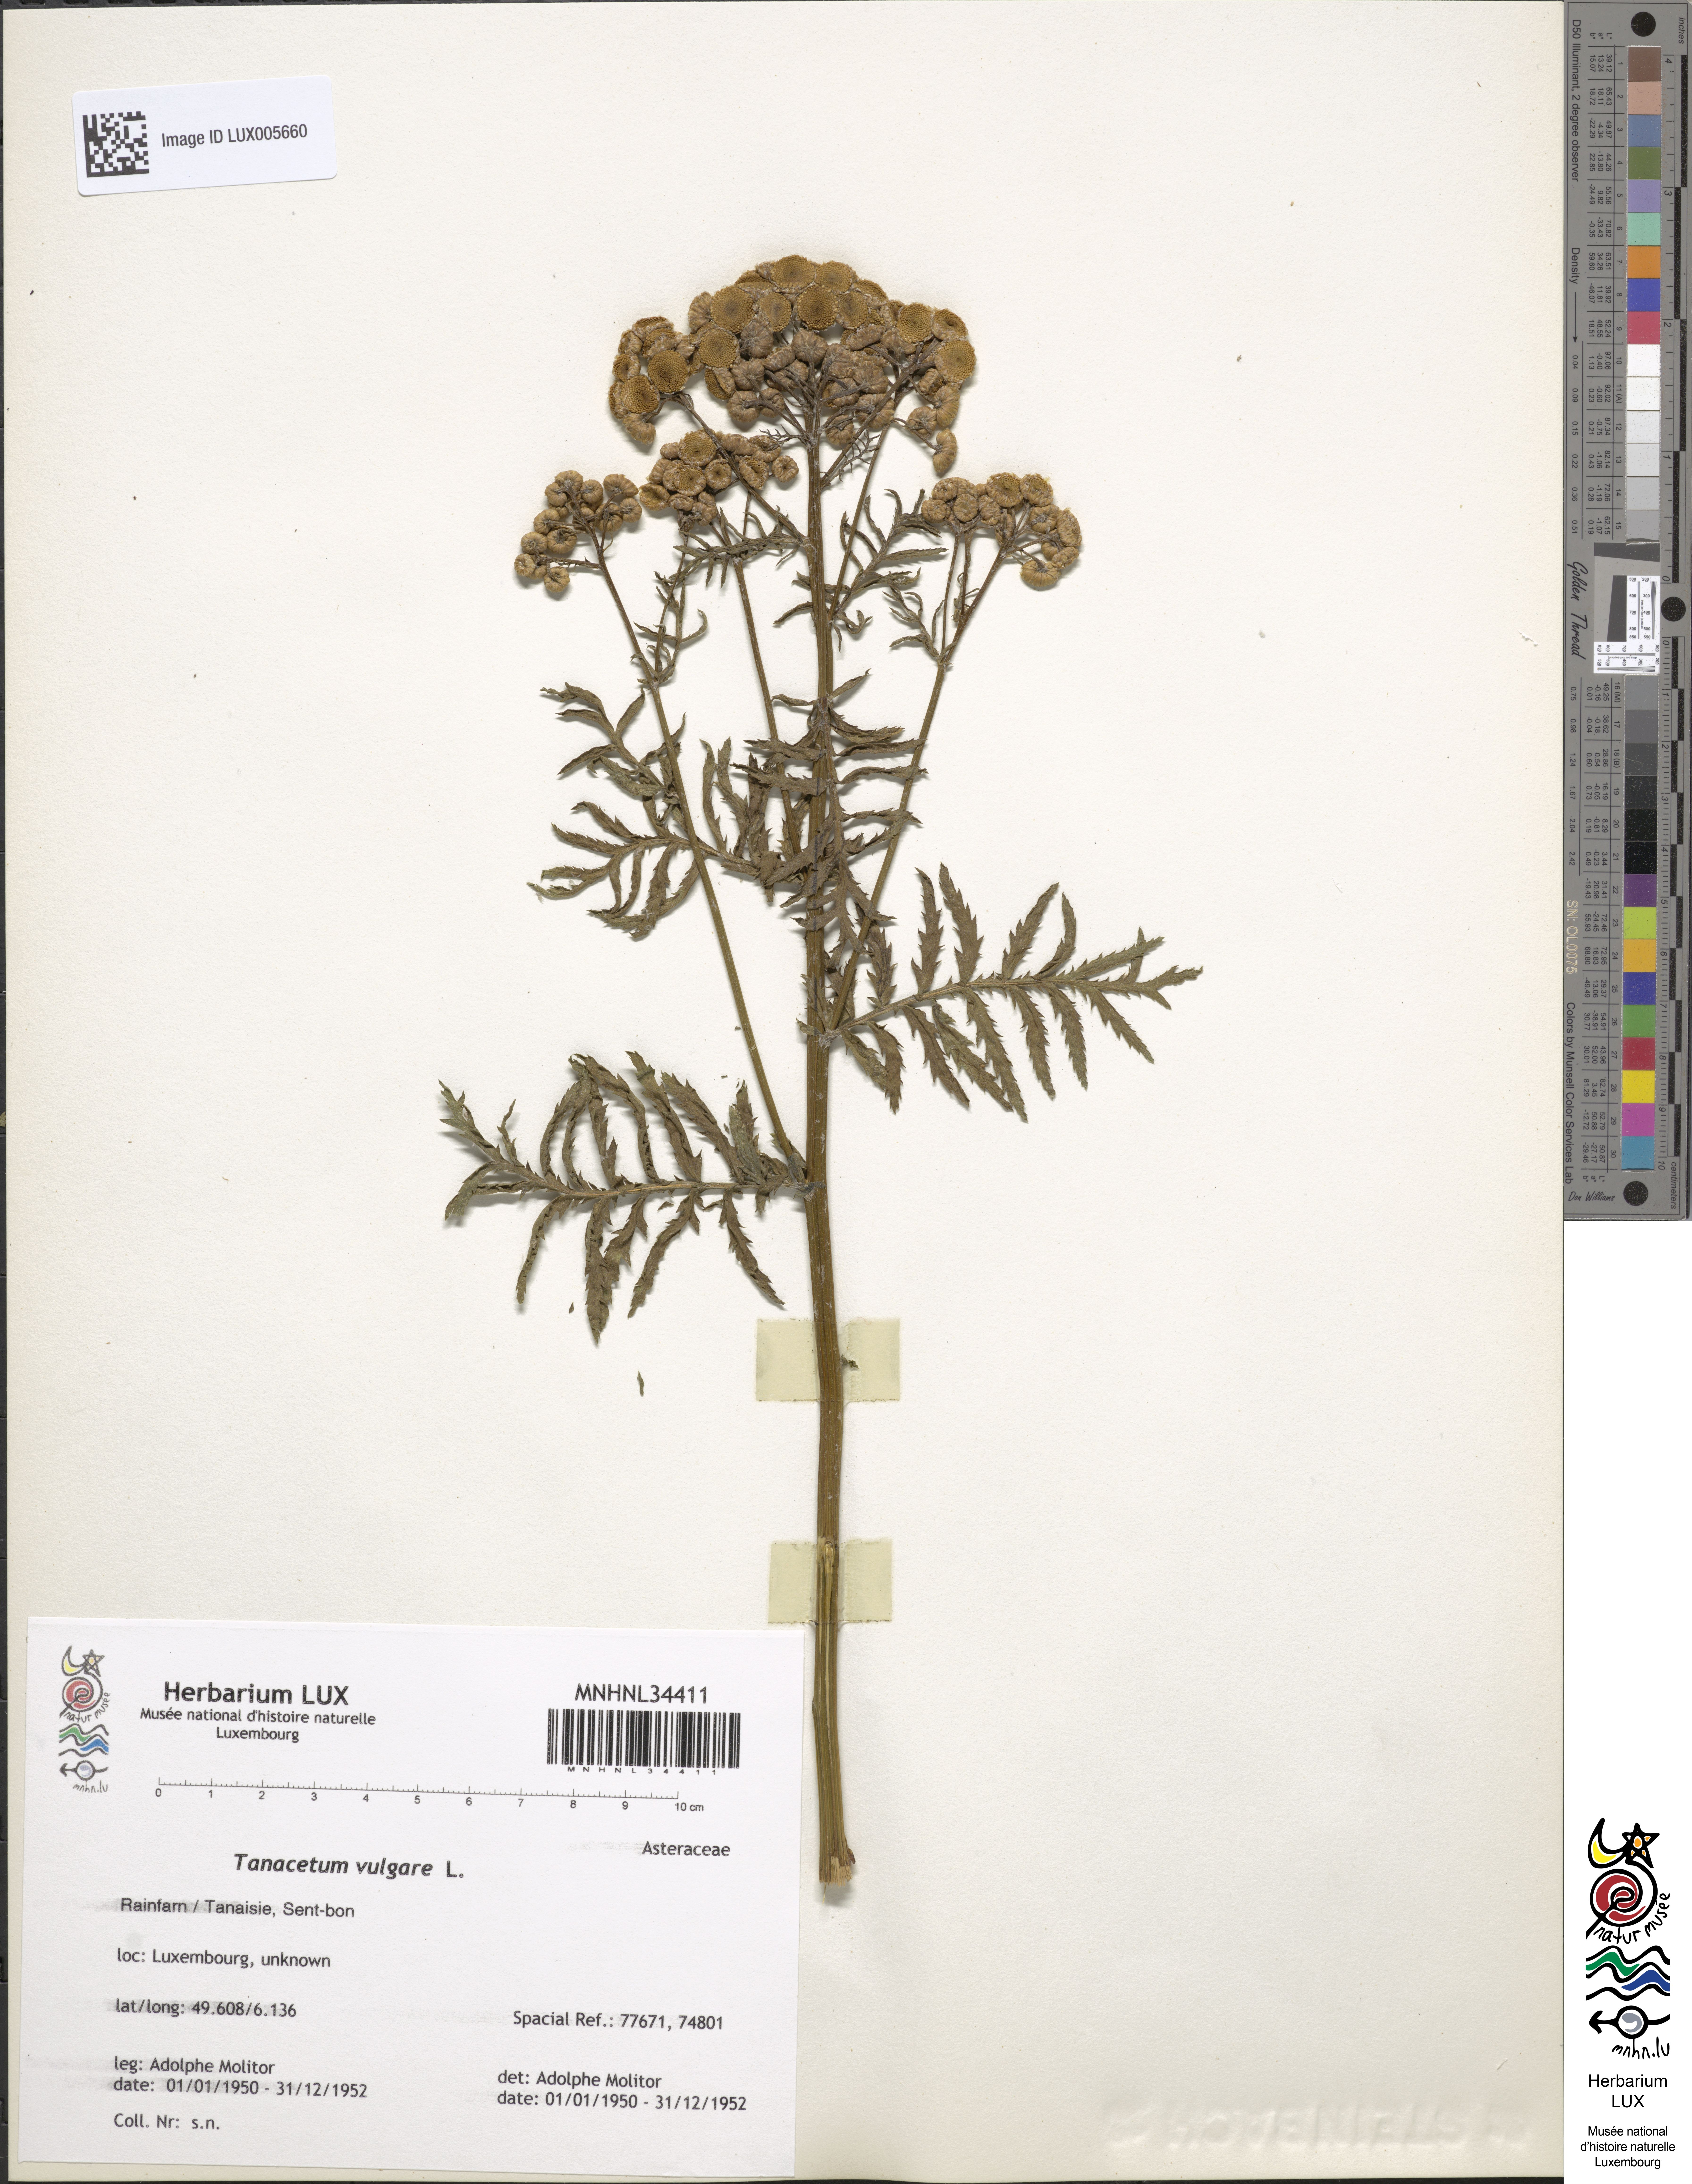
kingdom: Plantae
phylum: Tracheophyta
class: Magnoliopsida
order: Asterales
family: Asteraceae
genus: Tanacetum
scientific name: Tanacetum vulgare
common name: Common tansy
